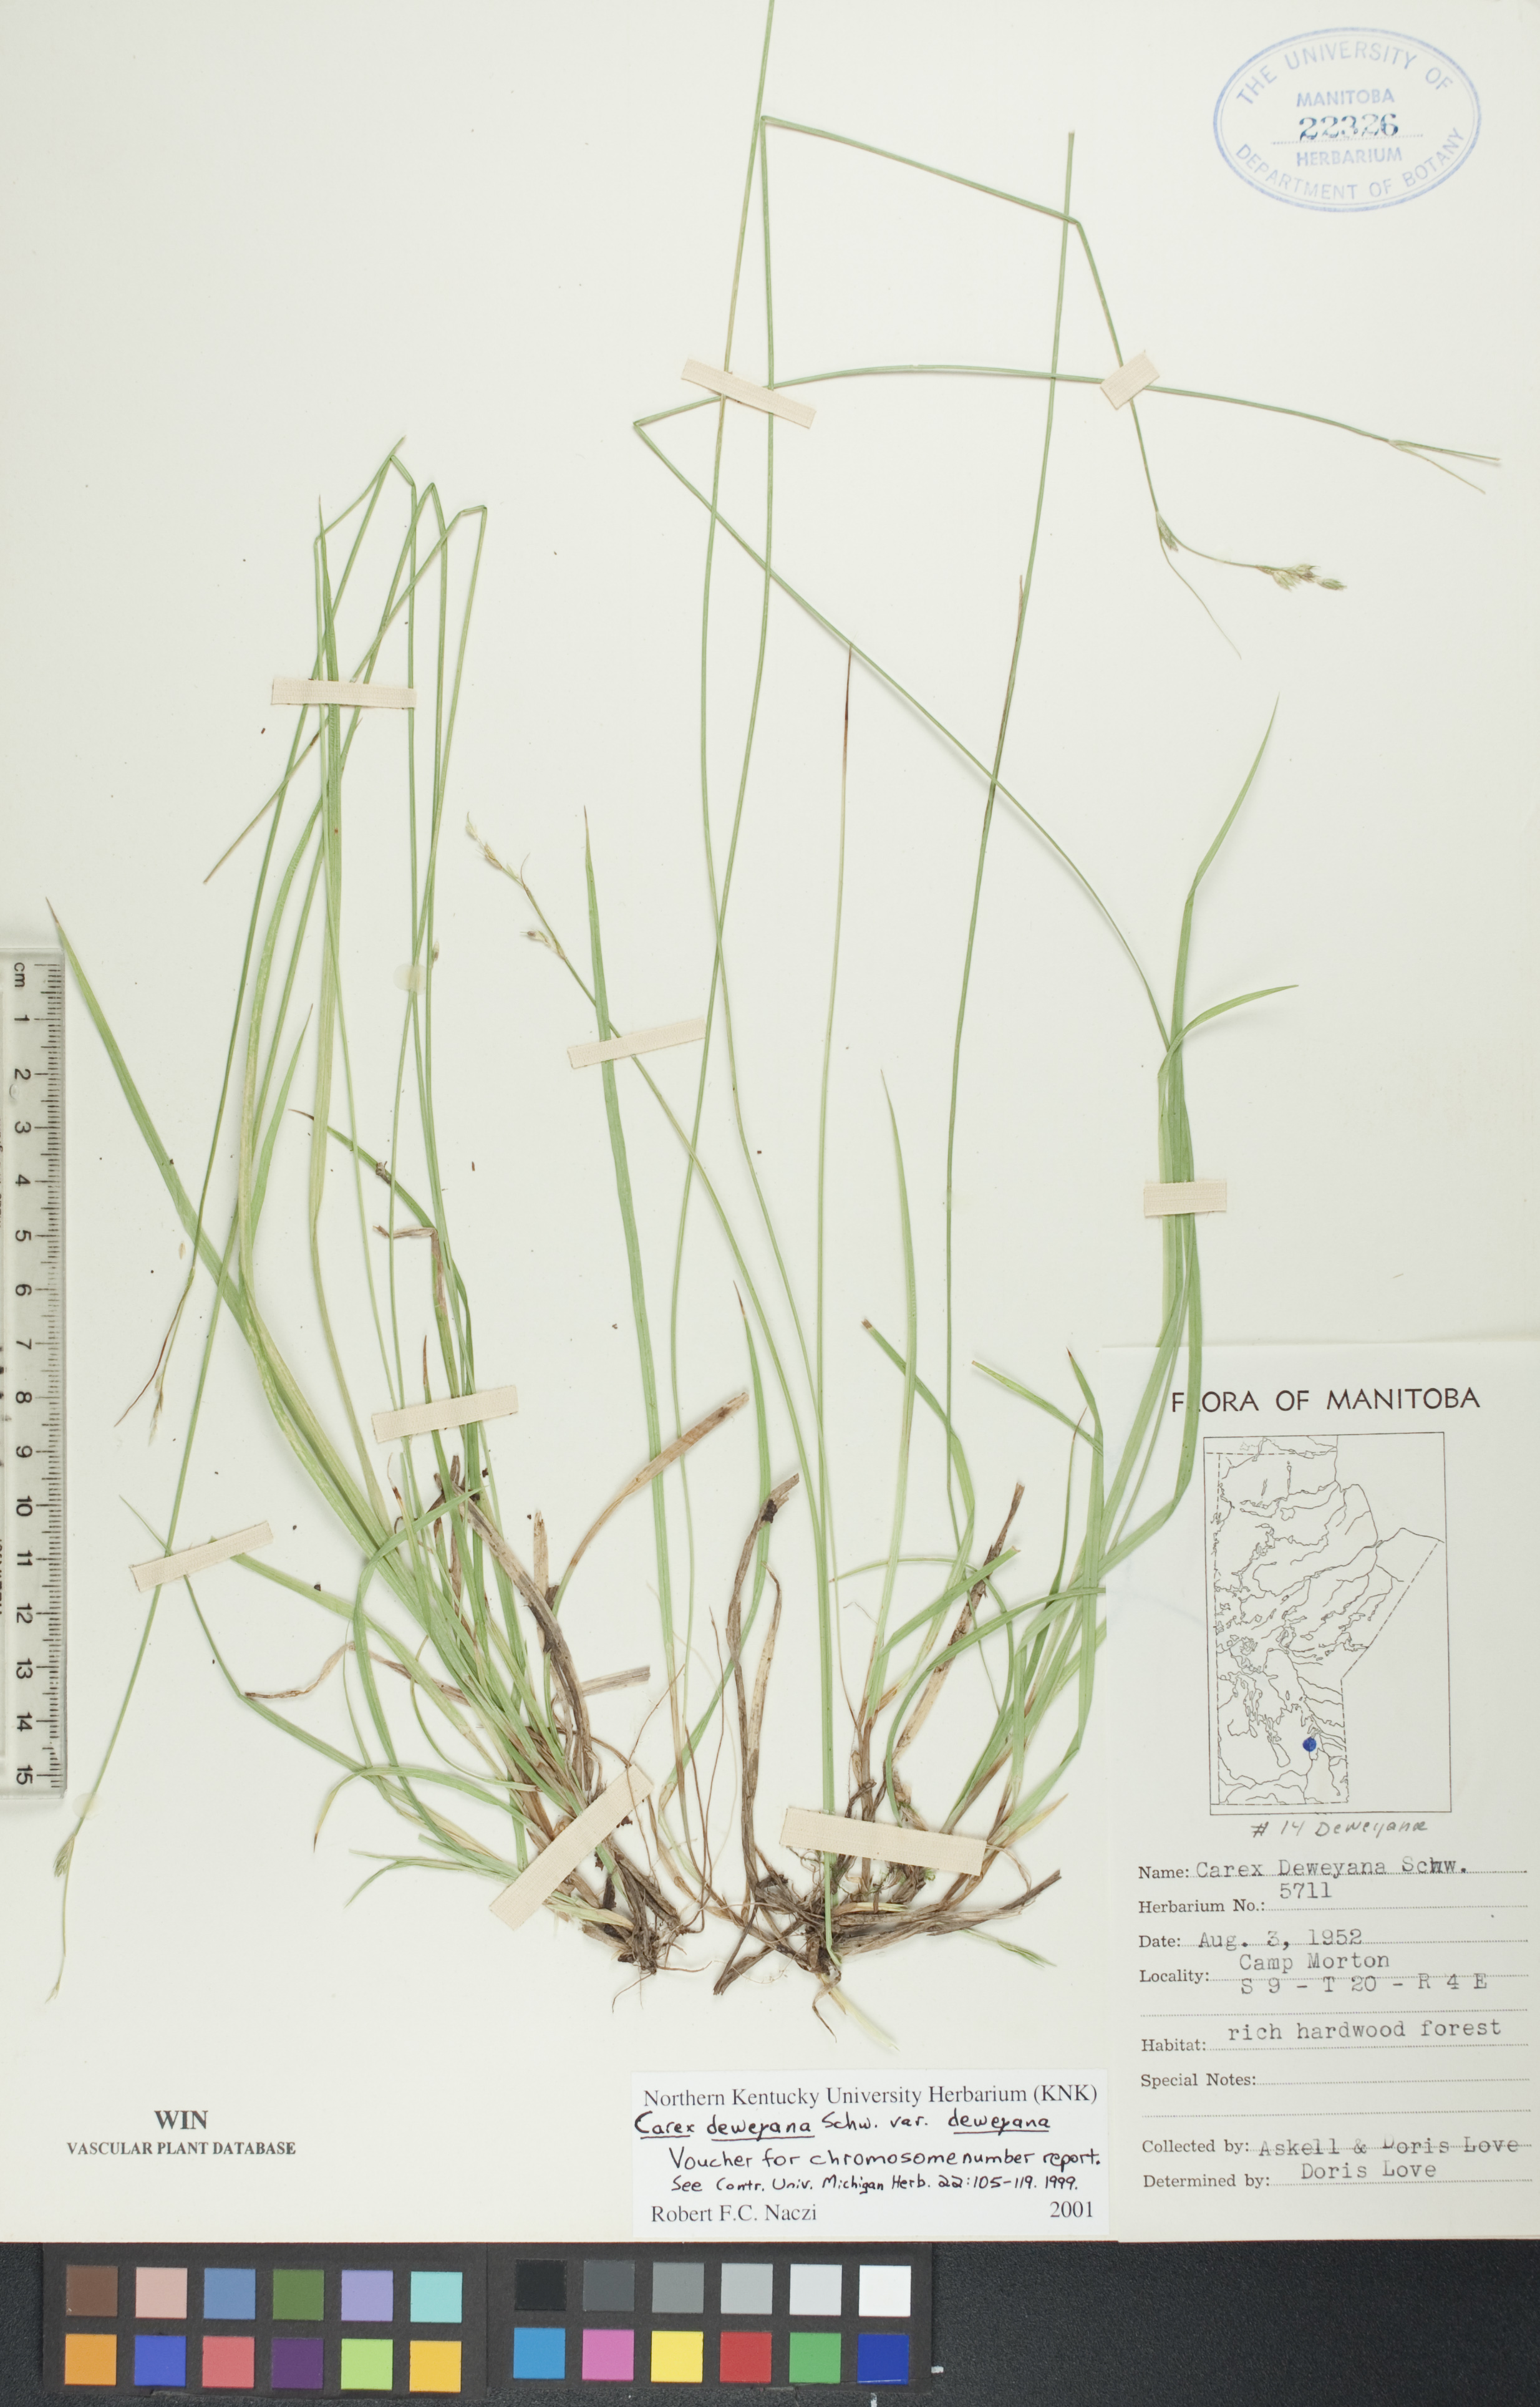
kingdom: Plantae
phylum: Tracheophyta
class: Liliopsida
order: Poales
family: Cyperaceae
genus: Carex
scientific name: Carex deweyana
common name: Dewey's sedge
